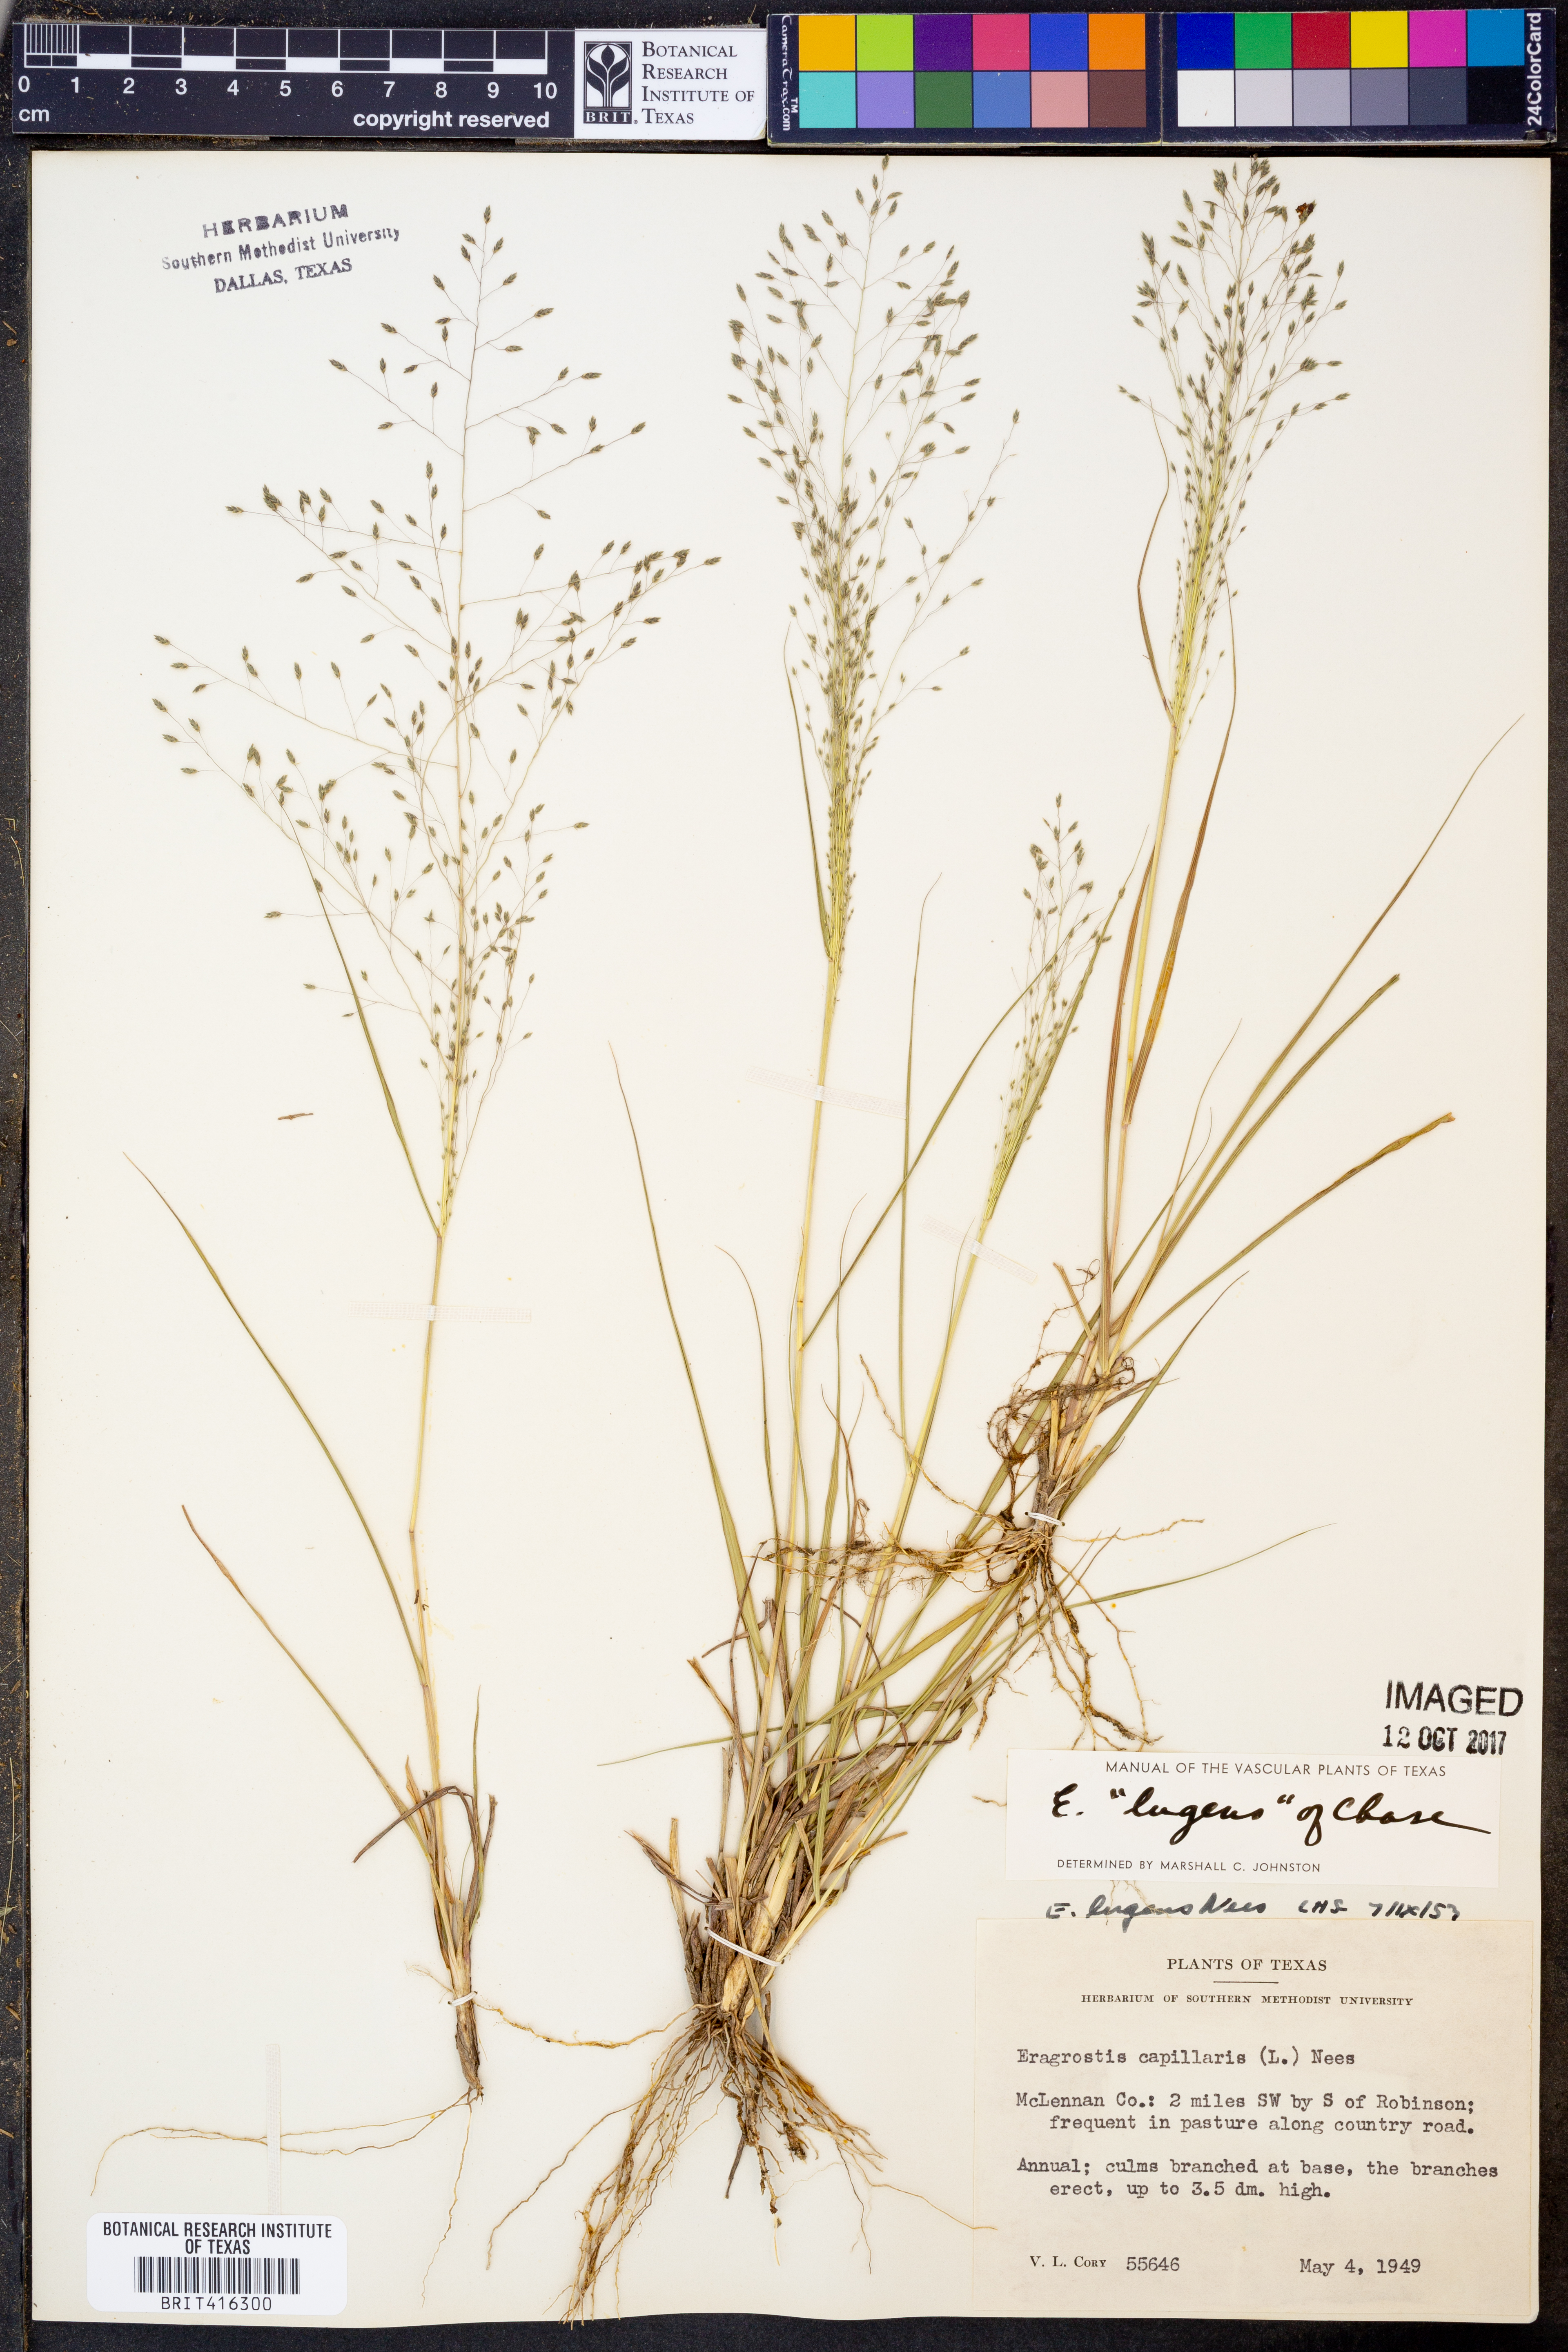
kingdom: Plantae
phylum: Tracheophyta
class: Liliopsida
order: Poales
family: Poaceae
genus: Eragrostis
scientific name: Eragrostis capillaris
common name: Hair-like lovegrass
